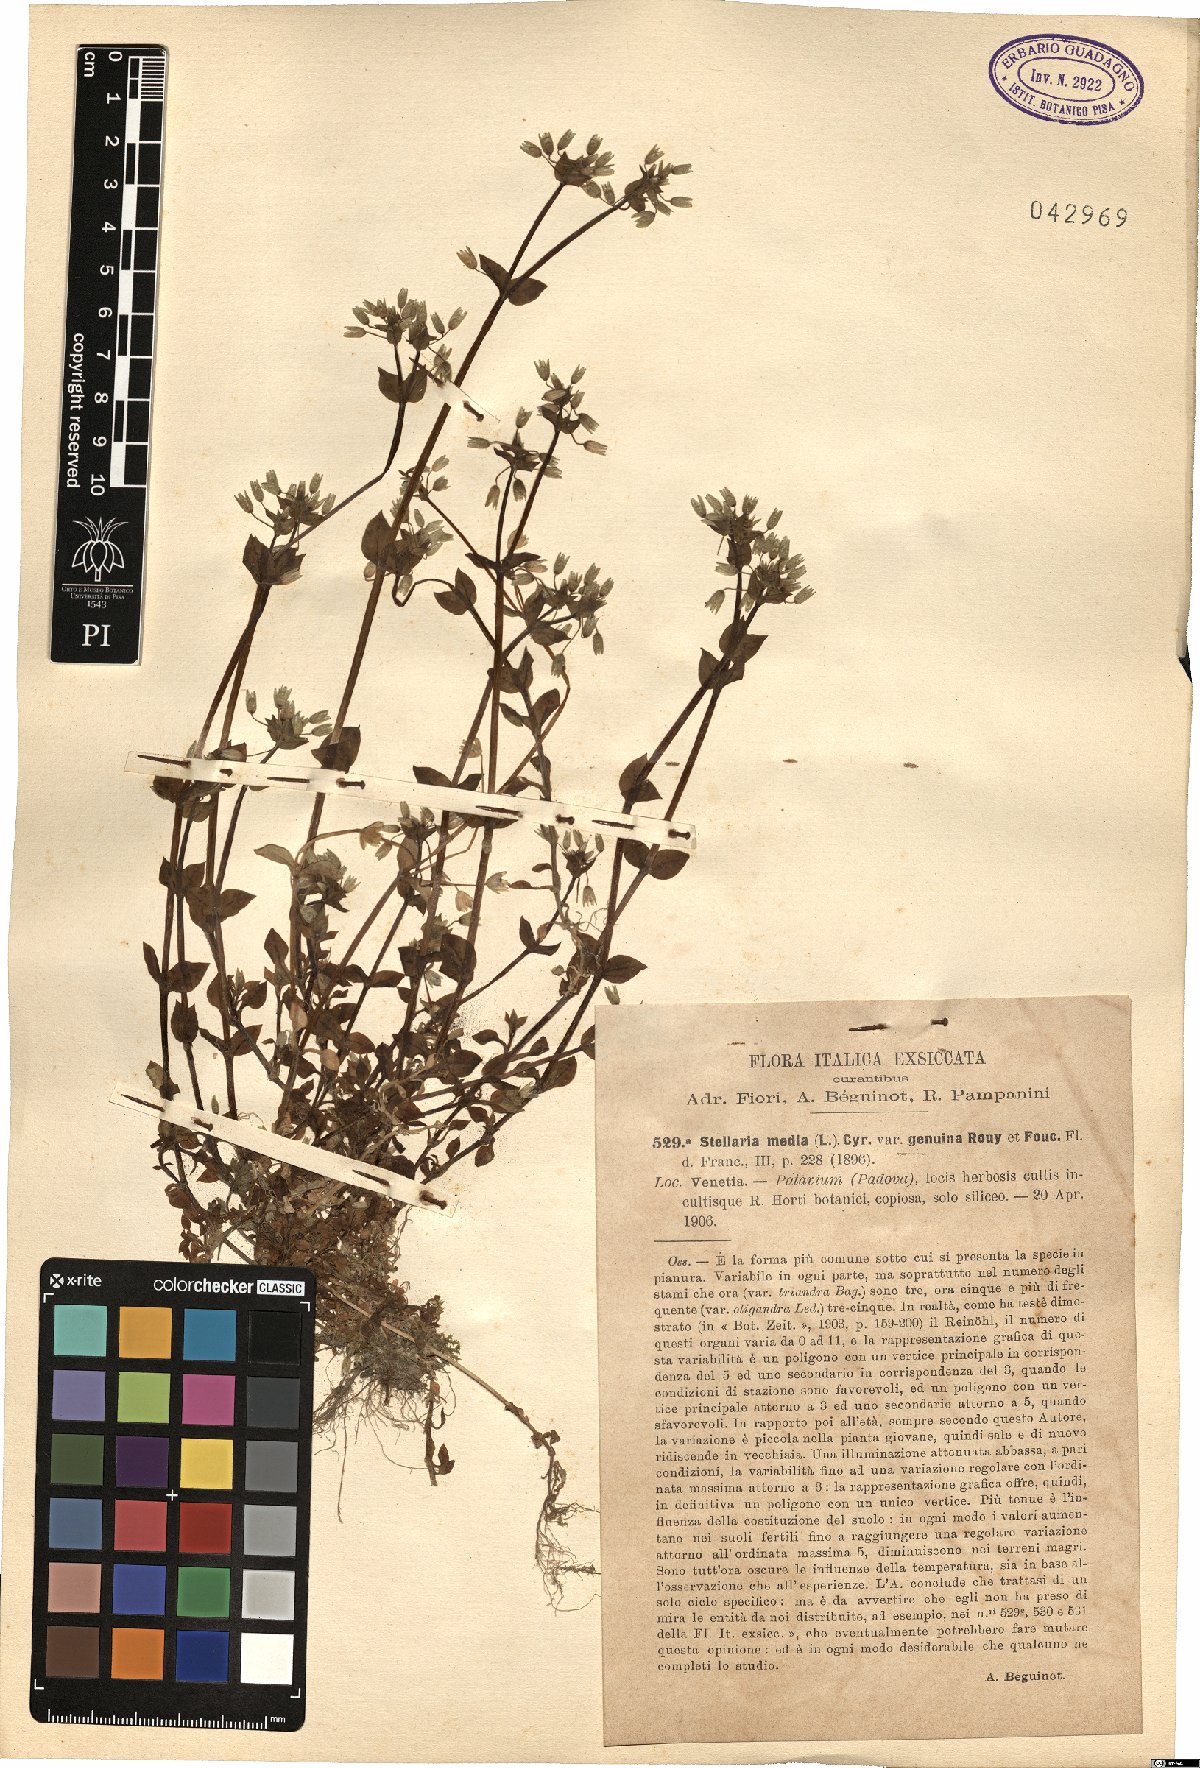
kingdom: Plantae
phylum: Tracheophyta
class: Magnoliopsida
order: Caryophyllales
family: Caryophyllaceae
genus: Stellaria
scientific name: Stellaria media
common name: Common chickweed
